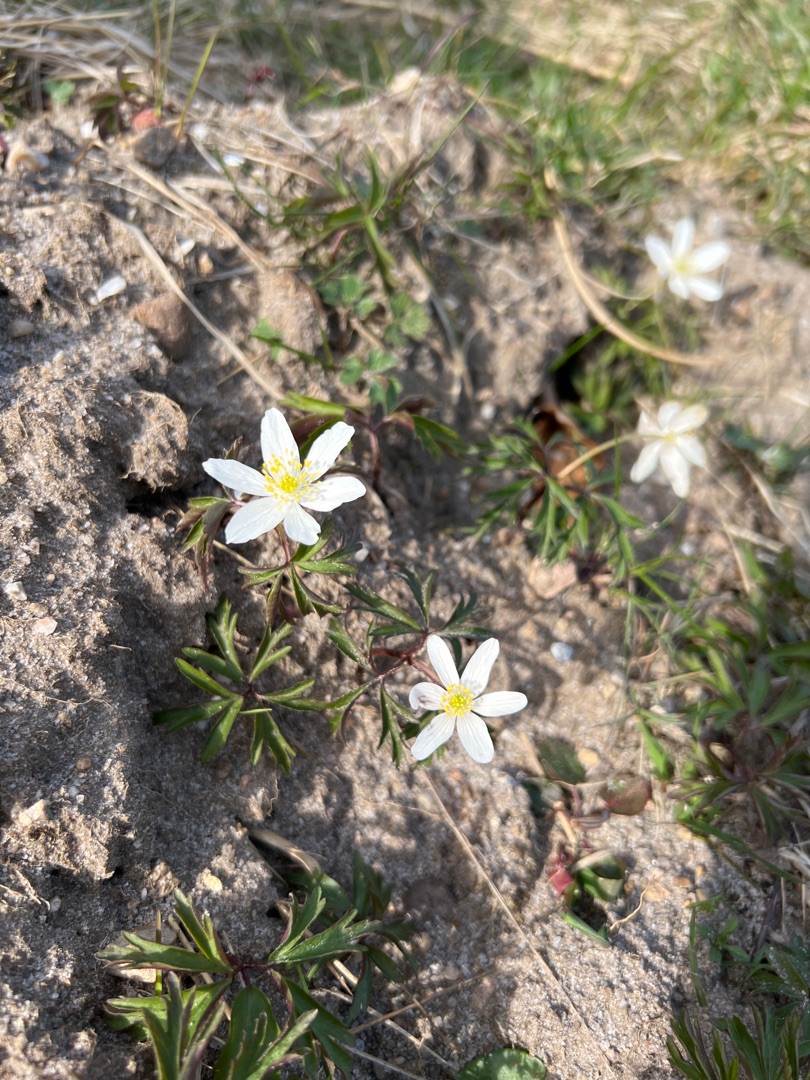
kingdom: Plantae
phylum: Tracheophyta
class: Magnoliopsida
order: Ranunculales
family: Ranunculaceae
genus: Anemone
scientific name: Anemone nemorosa
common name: Hvid anemone
